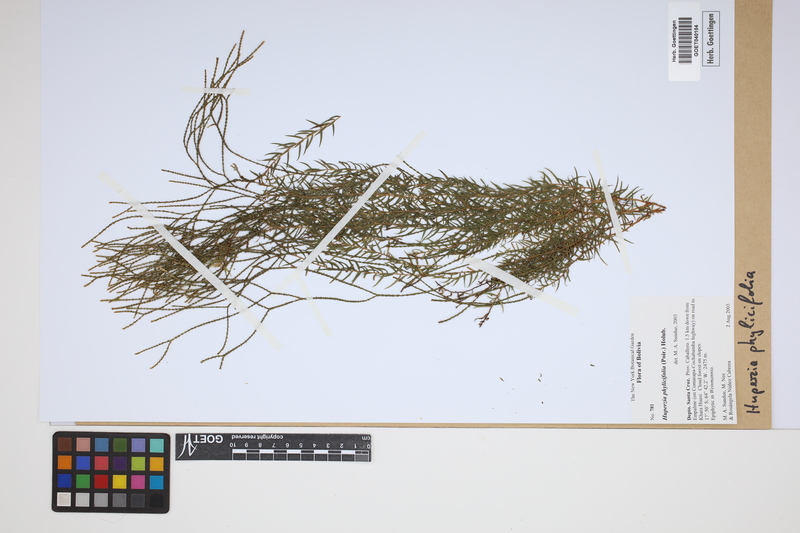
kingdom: Plantae
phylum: Tracheophyta
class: Lycopodiopsida
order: Lycopodiales
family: Lycopodiaceae
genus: Phlegmariurus
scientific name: Phlegmariurus phylicifolius
